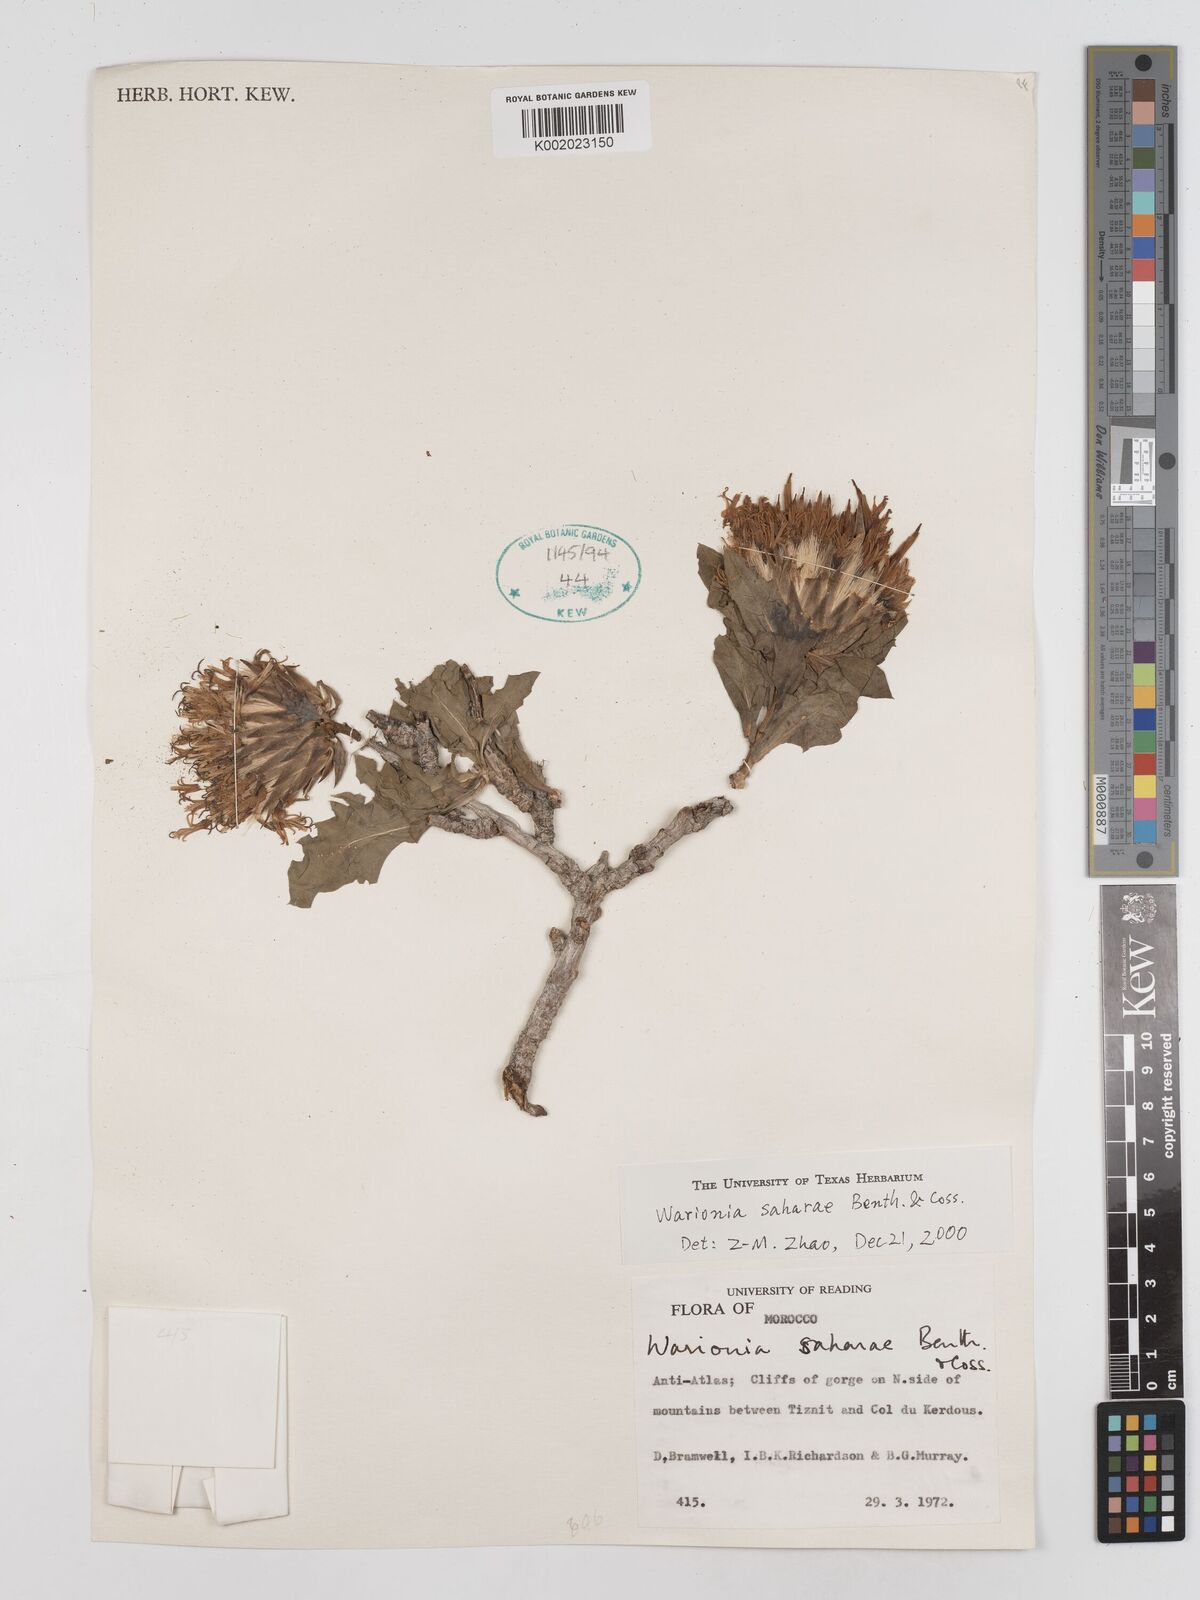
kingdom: Plantae
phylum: Tracheophyta
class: Magnoliopsida
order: Asterales
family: Asteraceae
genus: Warionia
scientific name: Warionia saharae
